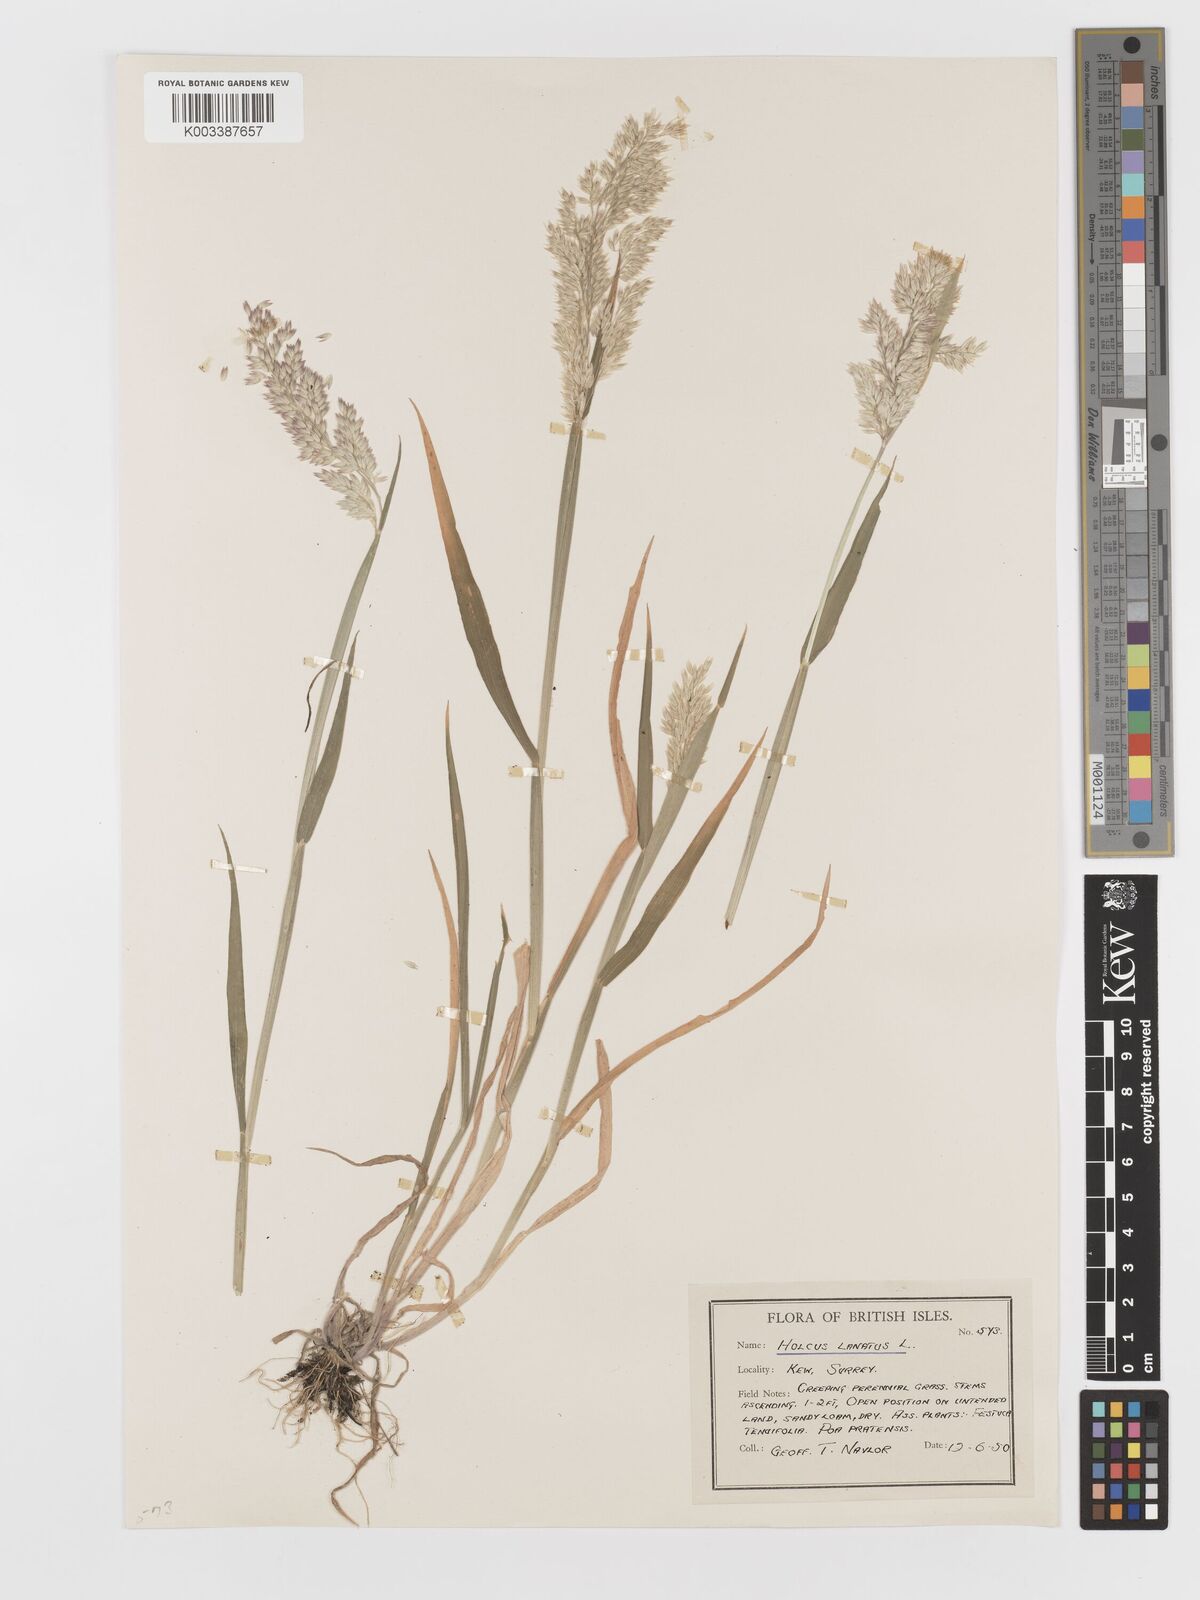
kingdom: Plantae
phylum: Tracheophyta
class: Liliopsida
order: Poales
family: Poaceae
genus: Holcus
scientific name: Holcus lanatus
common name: Yorkshire-fog
